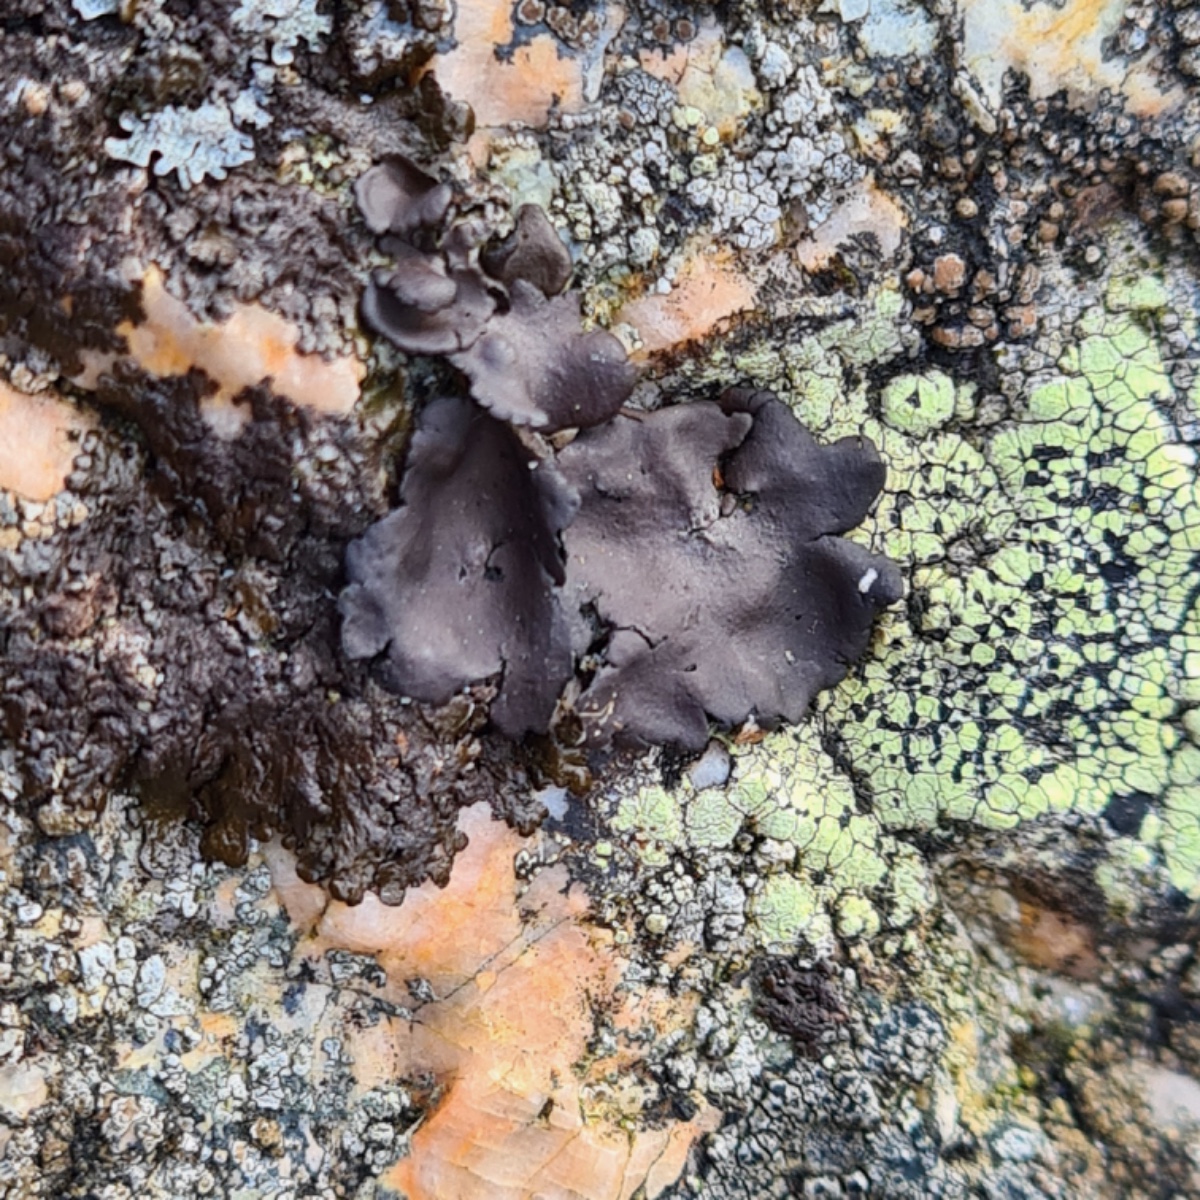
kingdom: Fungi
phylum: Ascomycota
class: Lecanoromycetes
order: Umbilicariales
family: Umbilicariaceae
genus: Umbilicaria
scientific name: Umbilicaria polyphylla
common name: glat navlelav
